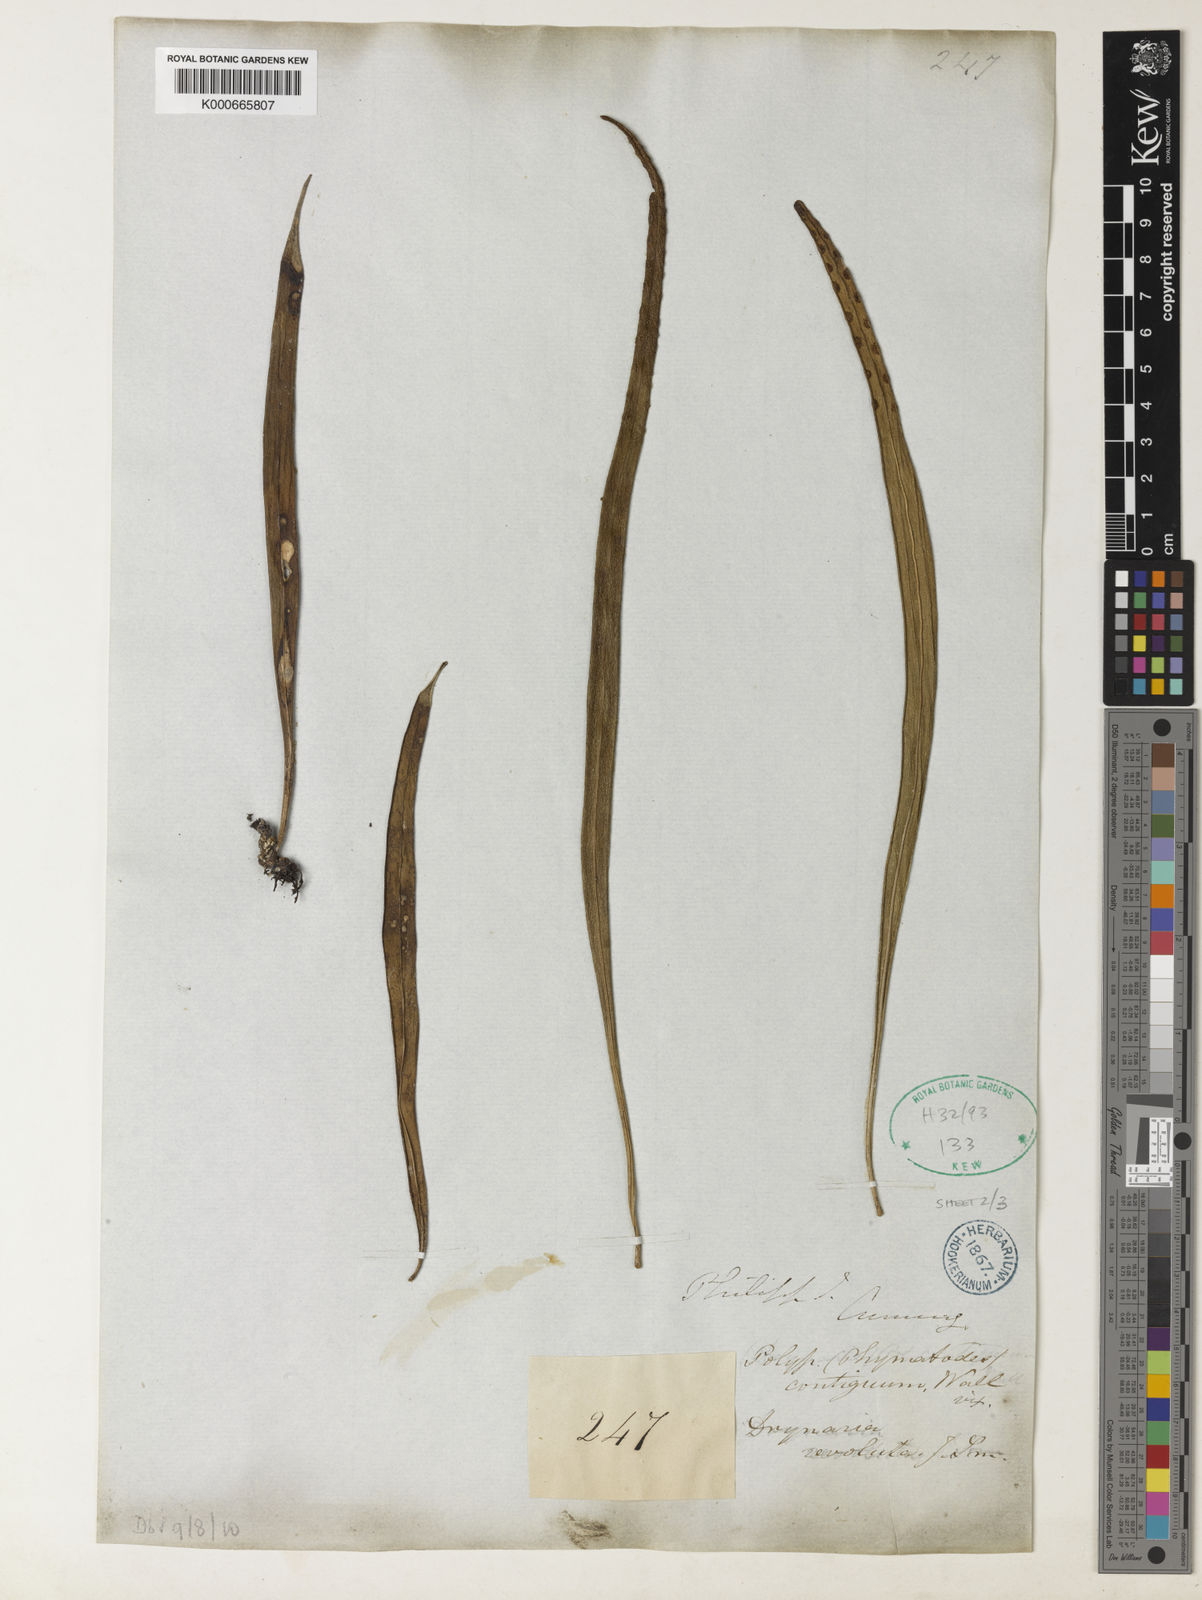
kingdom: Plantae
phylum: Tracheophyta
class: Polypodiopsida
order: Polypodiales
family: Polypodiaceae
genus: Lepisorus
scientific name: Lepisorus longifolius
